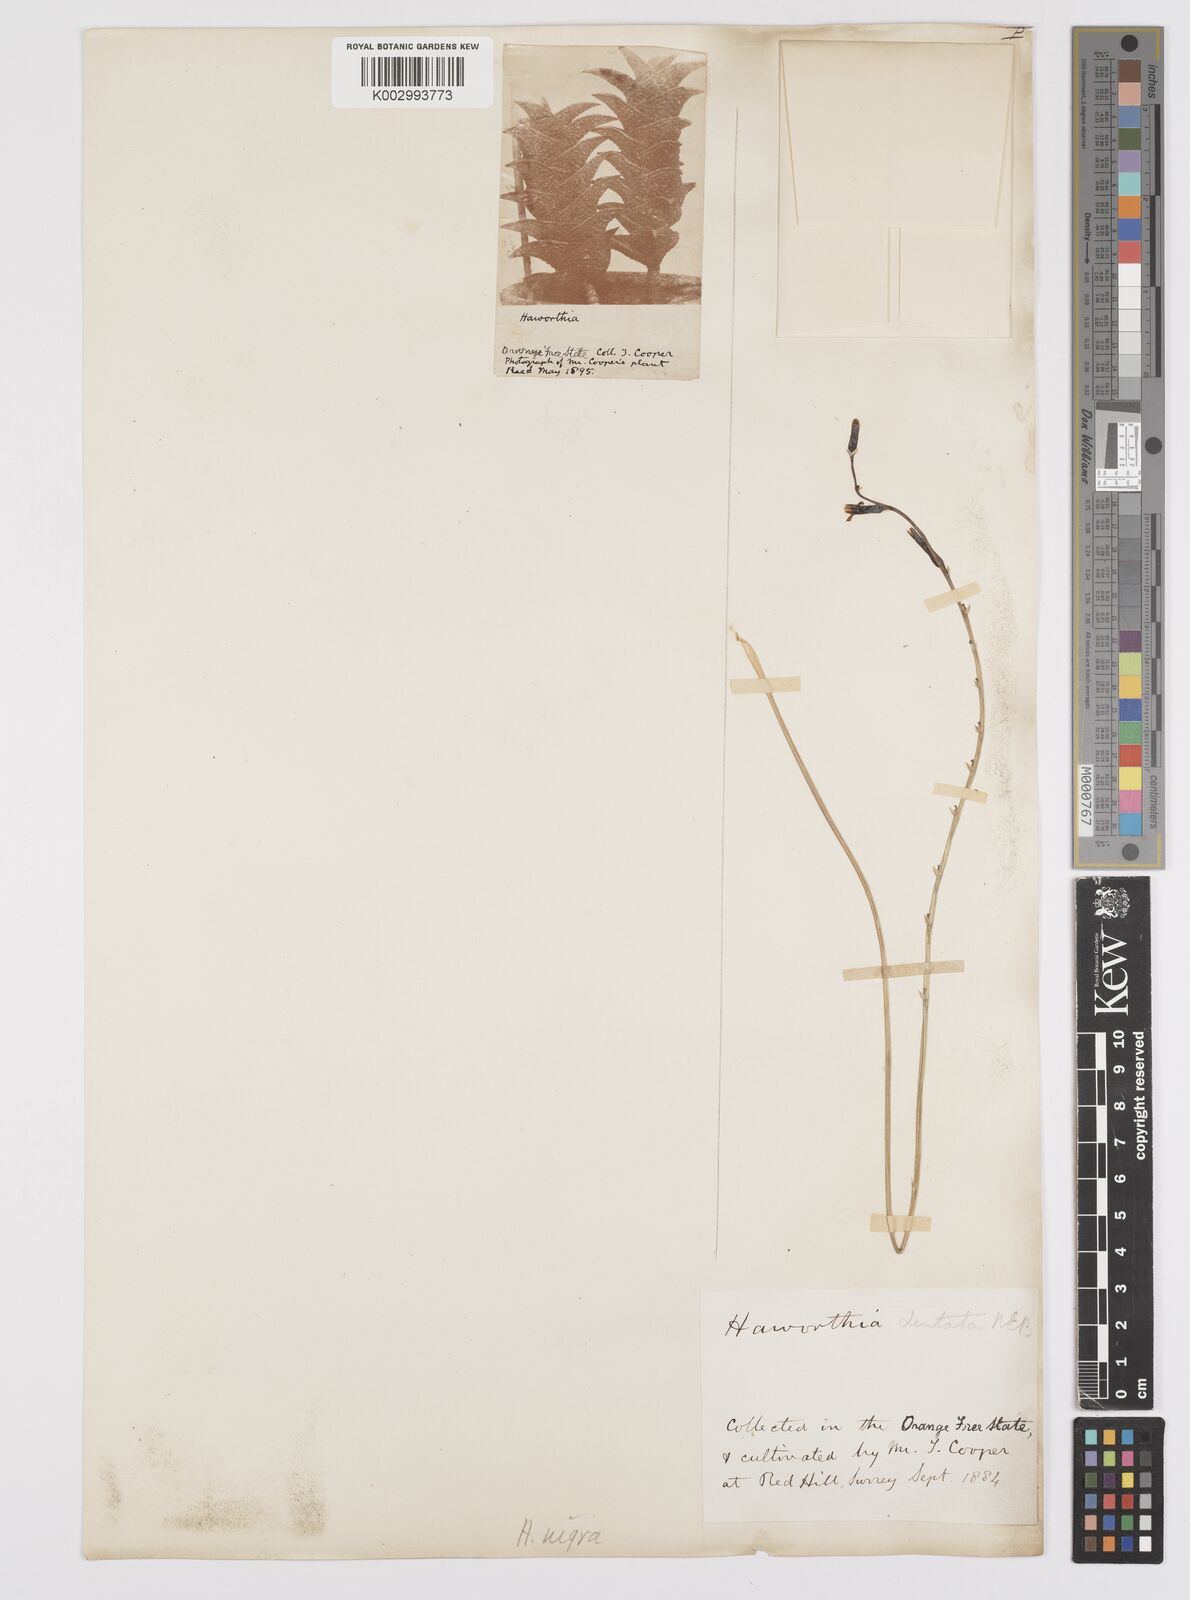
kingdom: Plantae
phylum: Tracheophyta
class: Liliopsida
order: Asparagales
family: Asphodelaceae
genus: Haworthiopsis
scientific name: Haworthiopsis nigra
